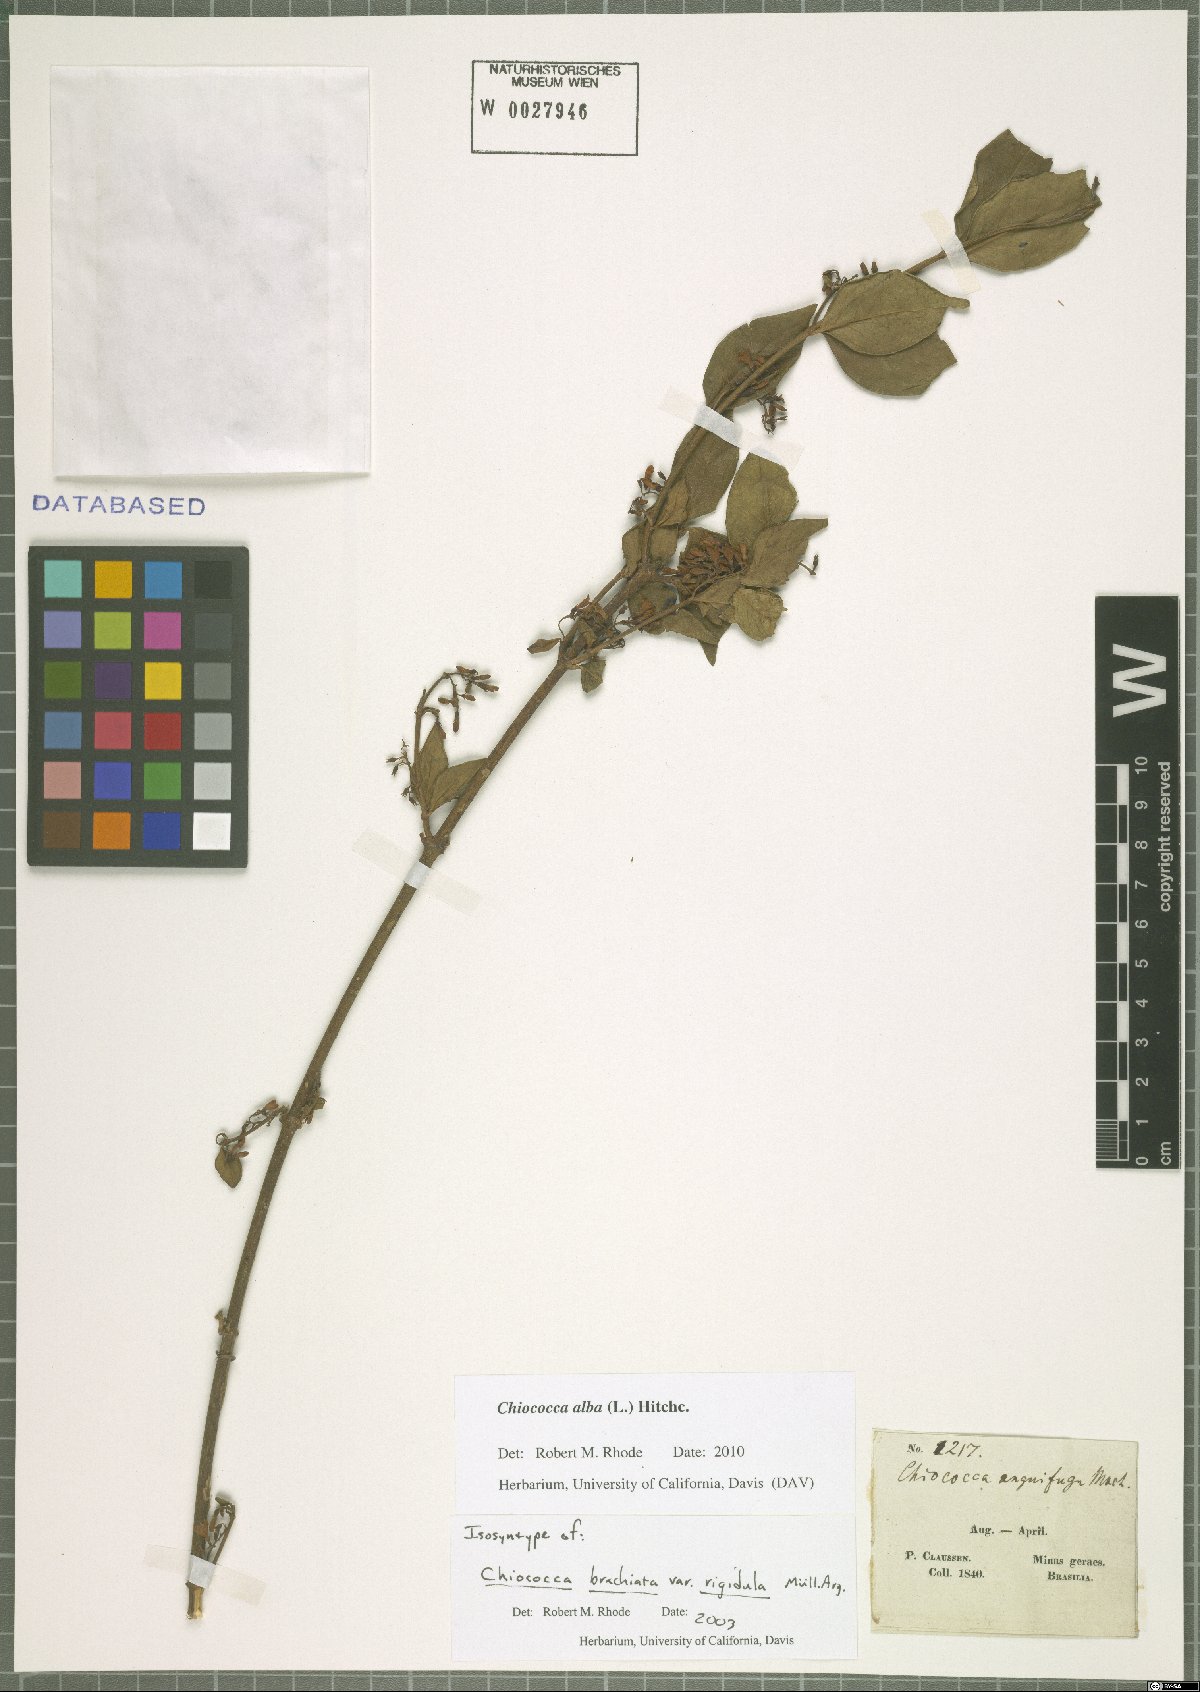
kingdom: Plantae
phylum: Tracheophyta
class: Magnoliopsida
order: Gentianales
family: Rubiaceae
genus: Chiococca
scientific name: Chiococca alba
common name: Snowberry
